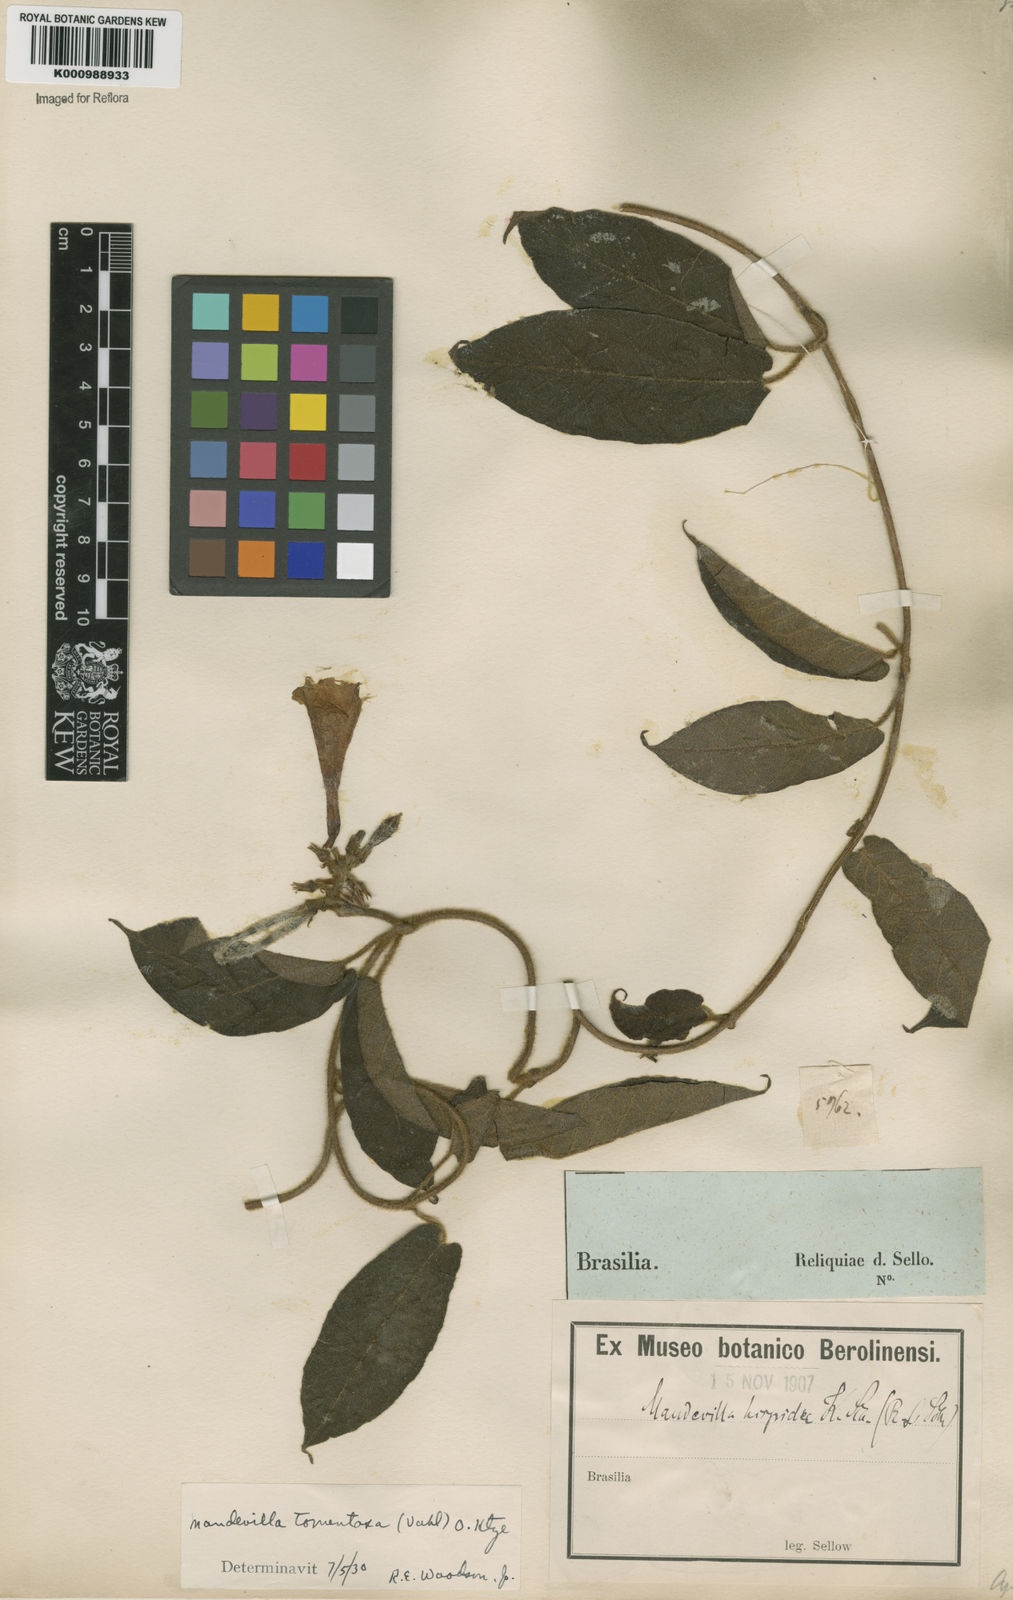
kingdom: Plantae
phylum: Tracheophyta
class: Magnoliopsida
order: Gentianales
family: Apocynaceae
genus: Mandevilla
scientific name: Mandevilla hirsuta
